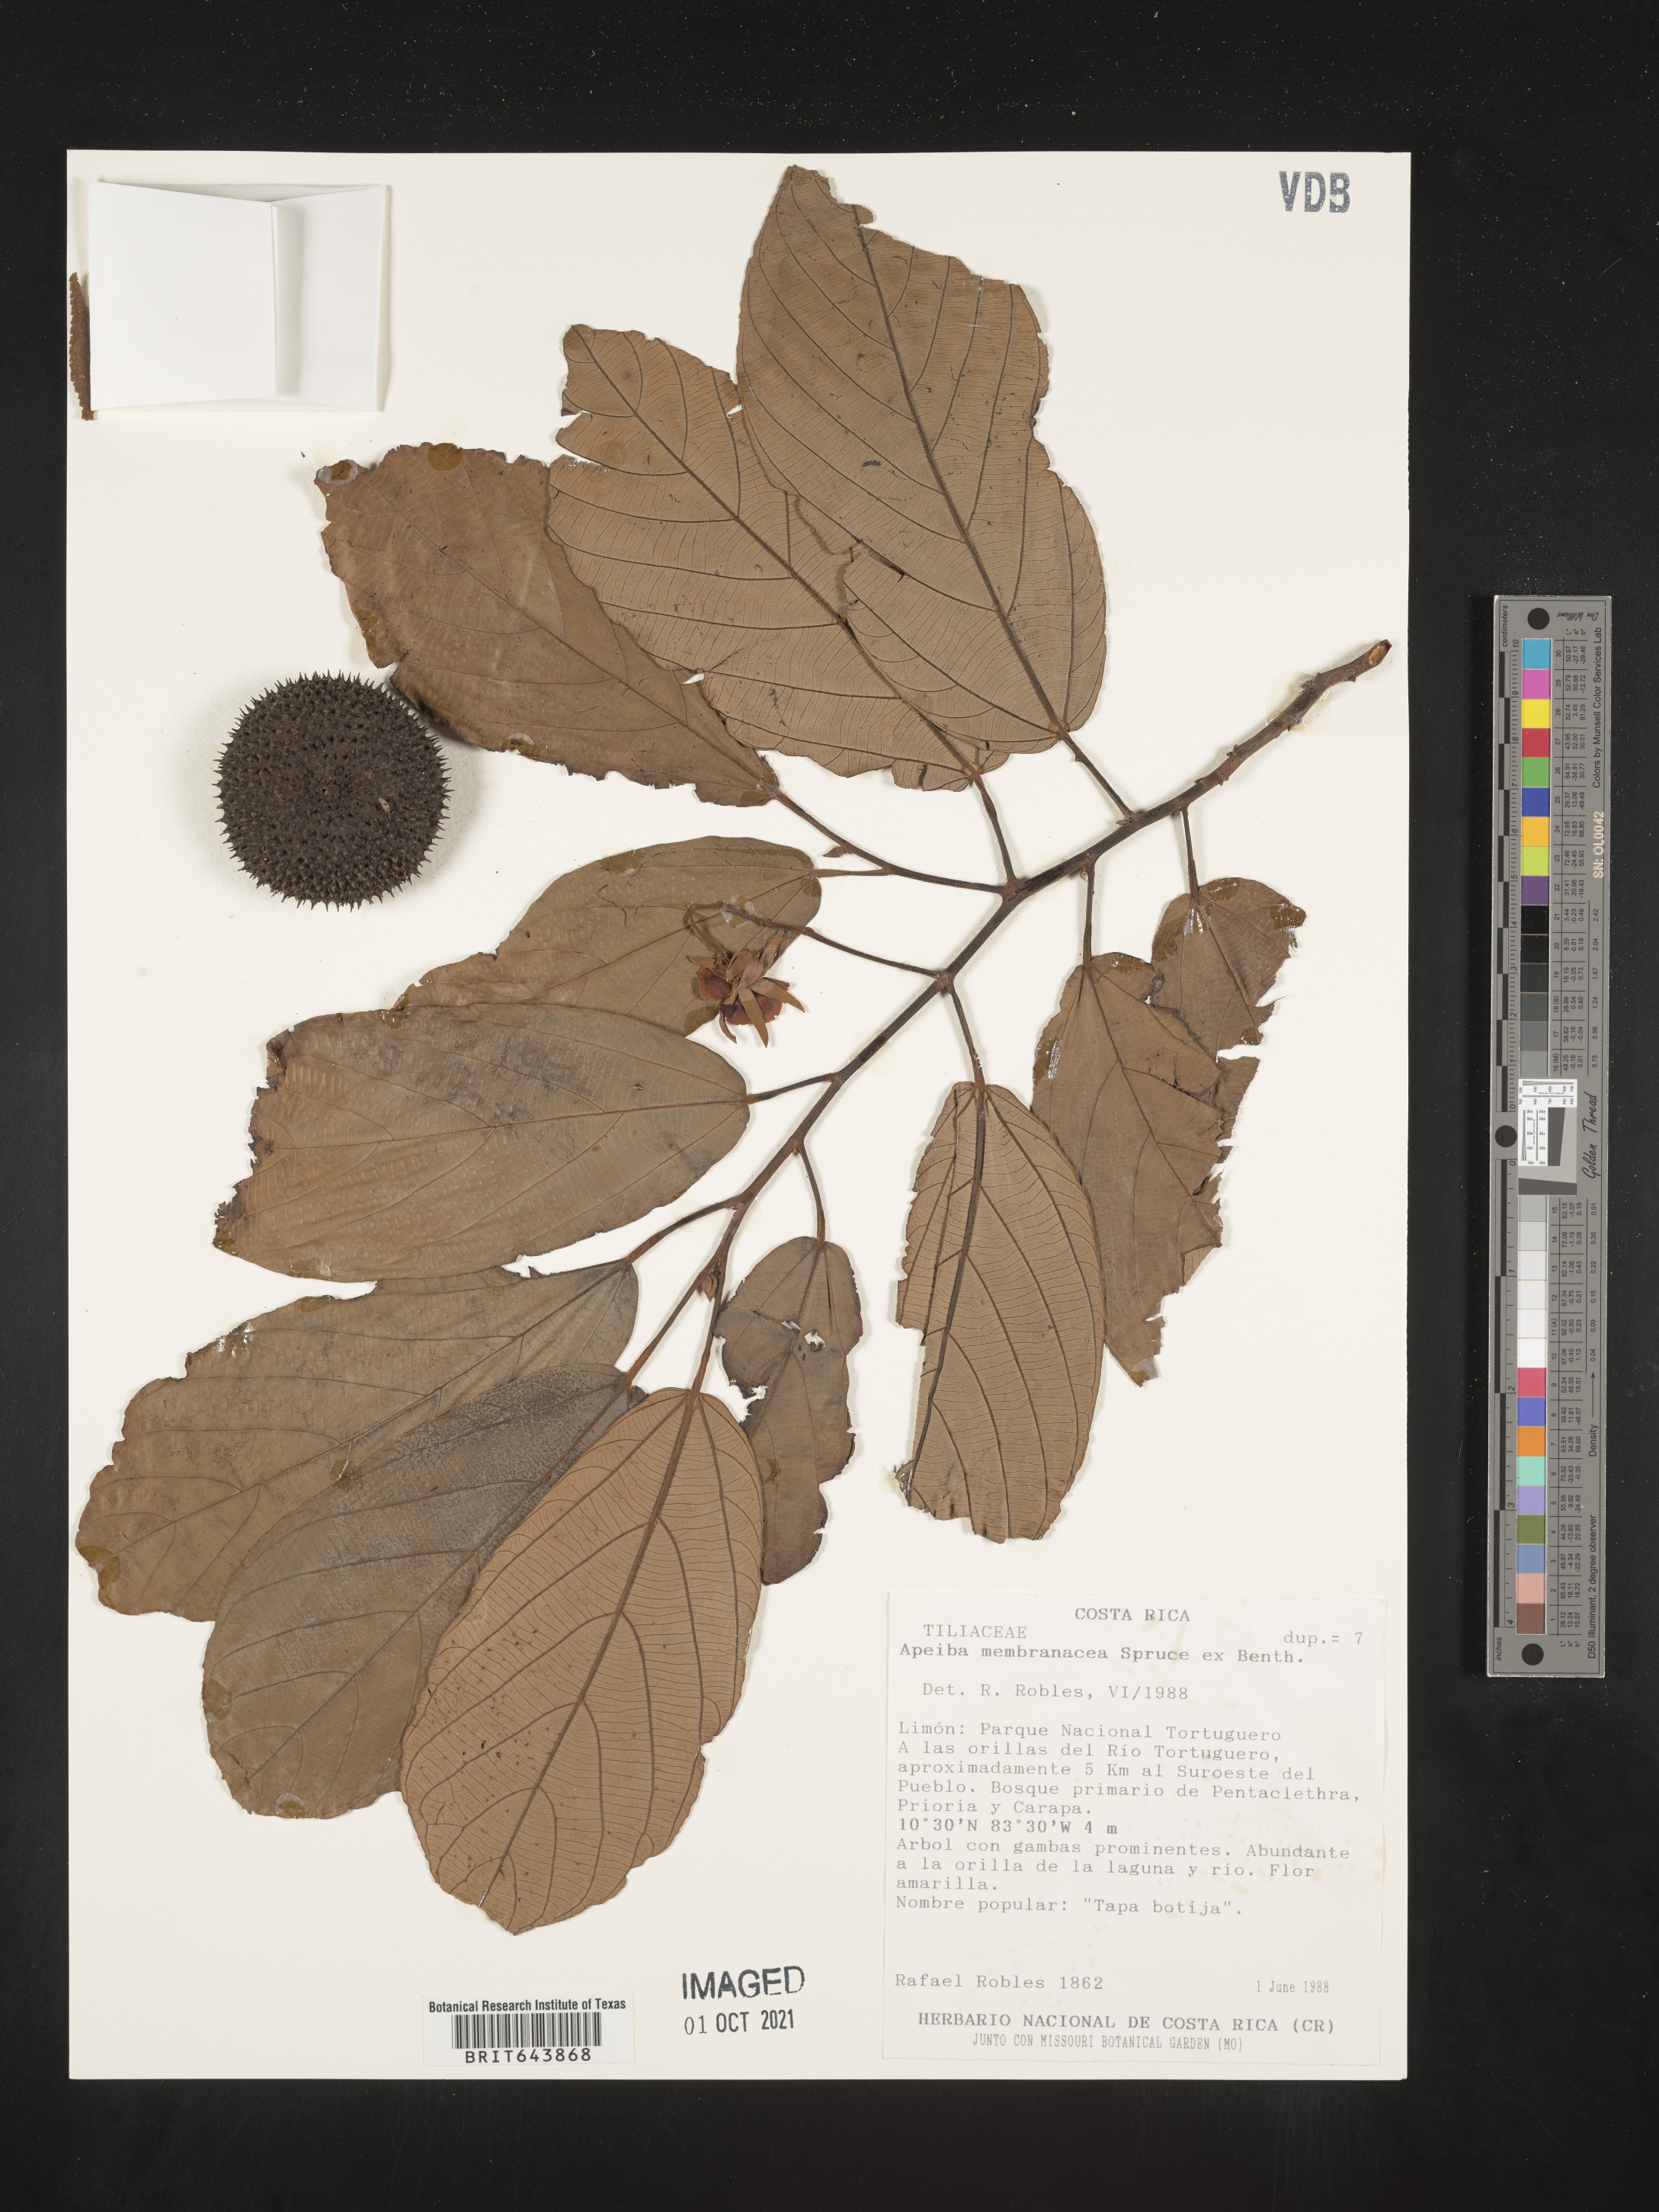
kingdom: Plantae
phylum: Tracheophyta
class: Magnoliopsida
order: Malvales
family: Malvaceae
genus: Apeiba
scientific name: Apeiba
